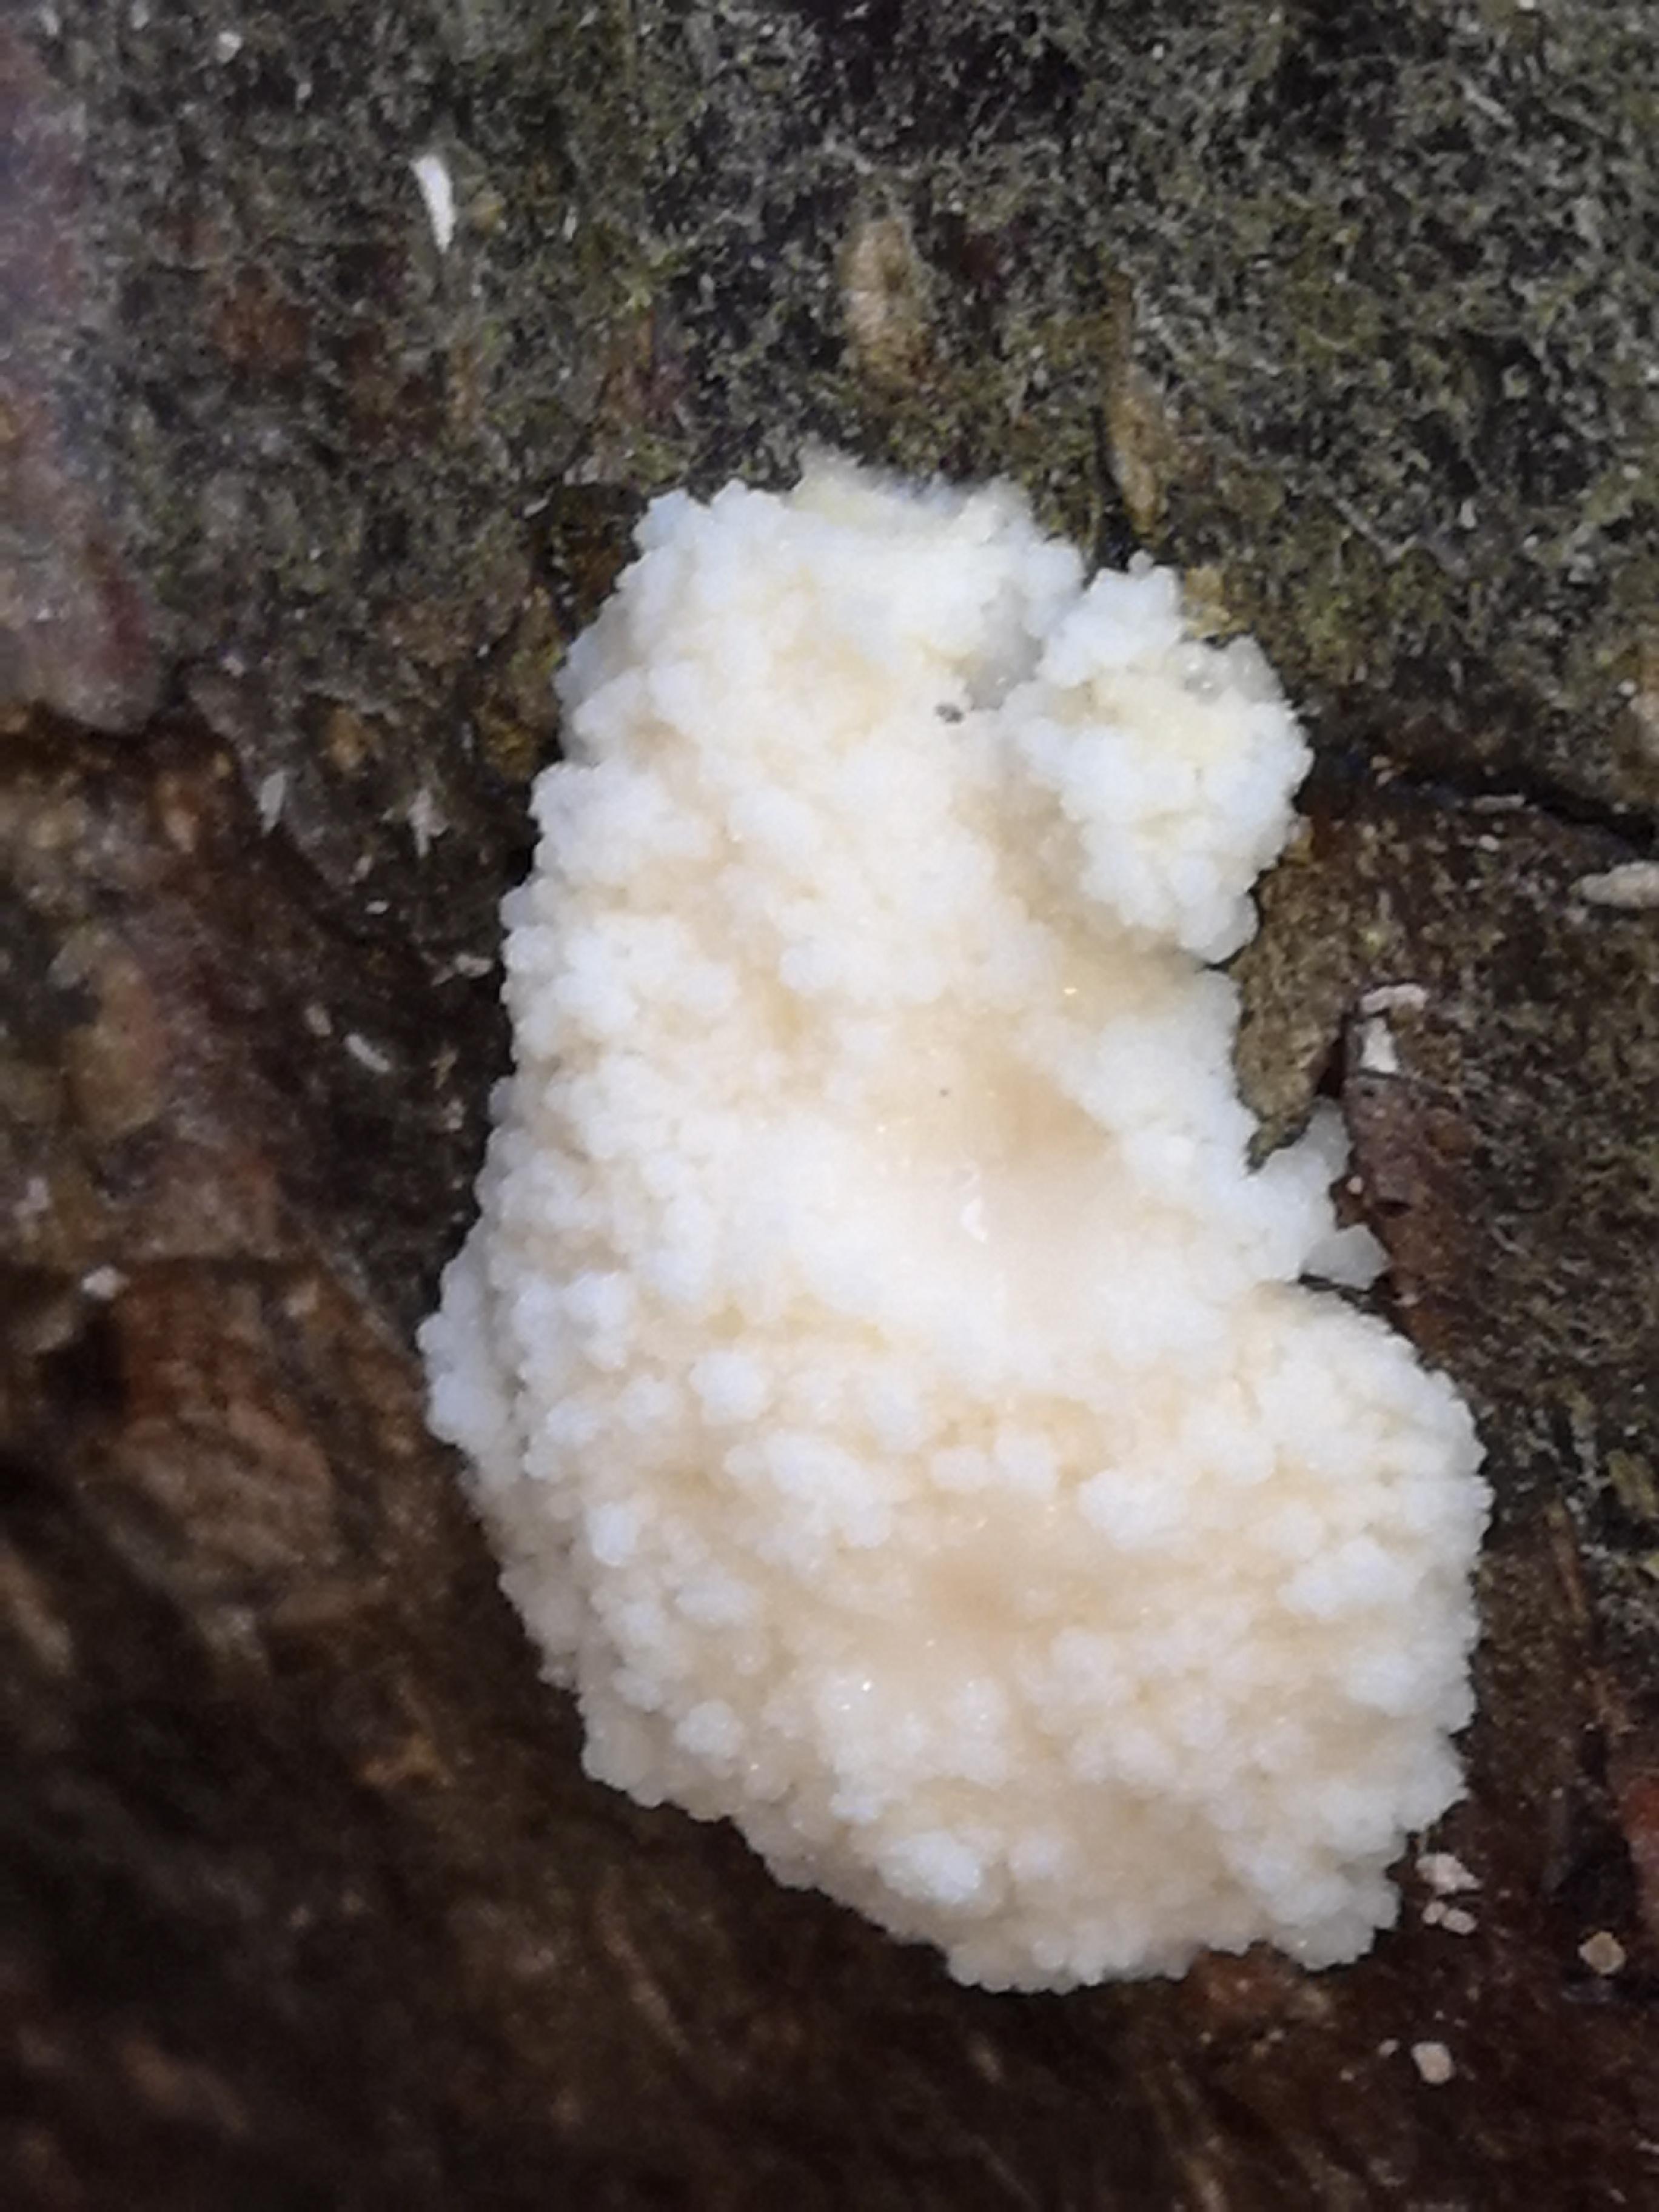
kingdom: Protozoa
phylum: Mycetozoa
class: Myxomycetes
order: Cribrariales
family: Tubiferaceae
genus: Reticularia
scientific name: Reticularia lycoperdon
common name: skinnende støvpude
